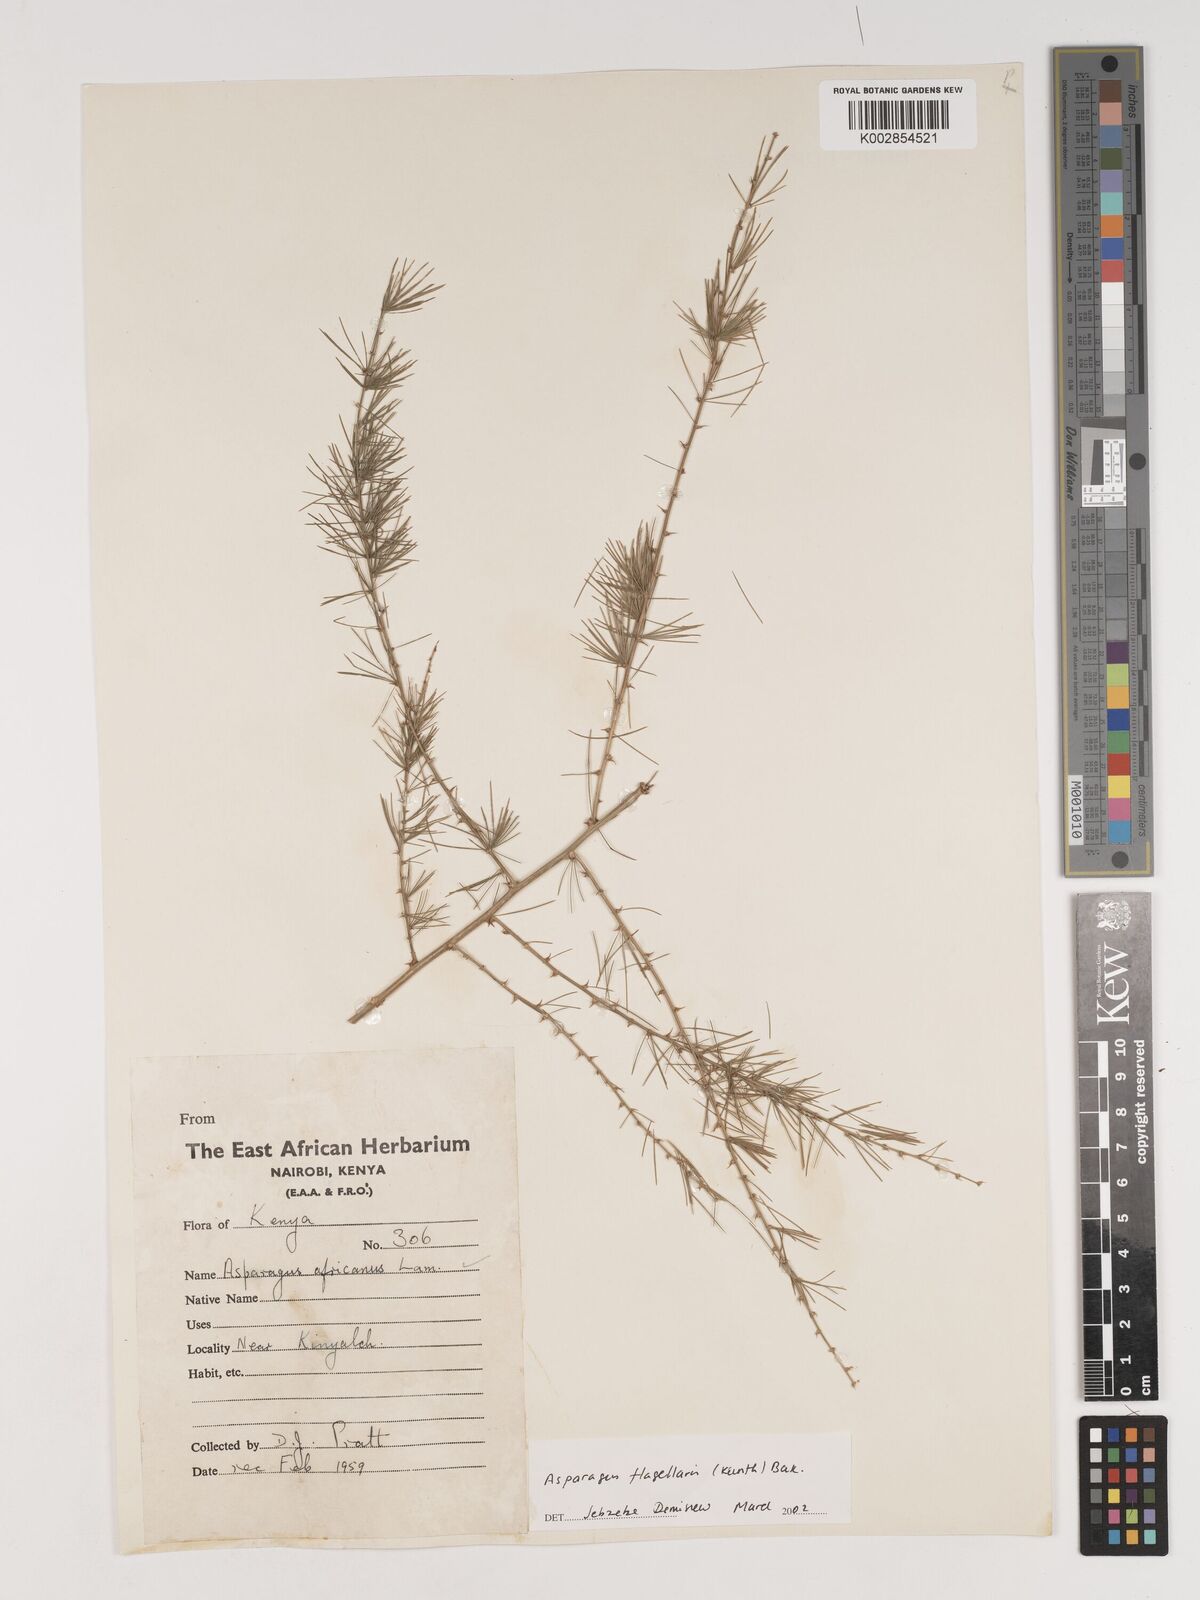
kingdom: Plantae
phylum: Tracheophyta
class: Liliopsida
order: Asparagales
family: Asparagaceae
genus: Asparagus
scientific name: Asparagus flagellaris
